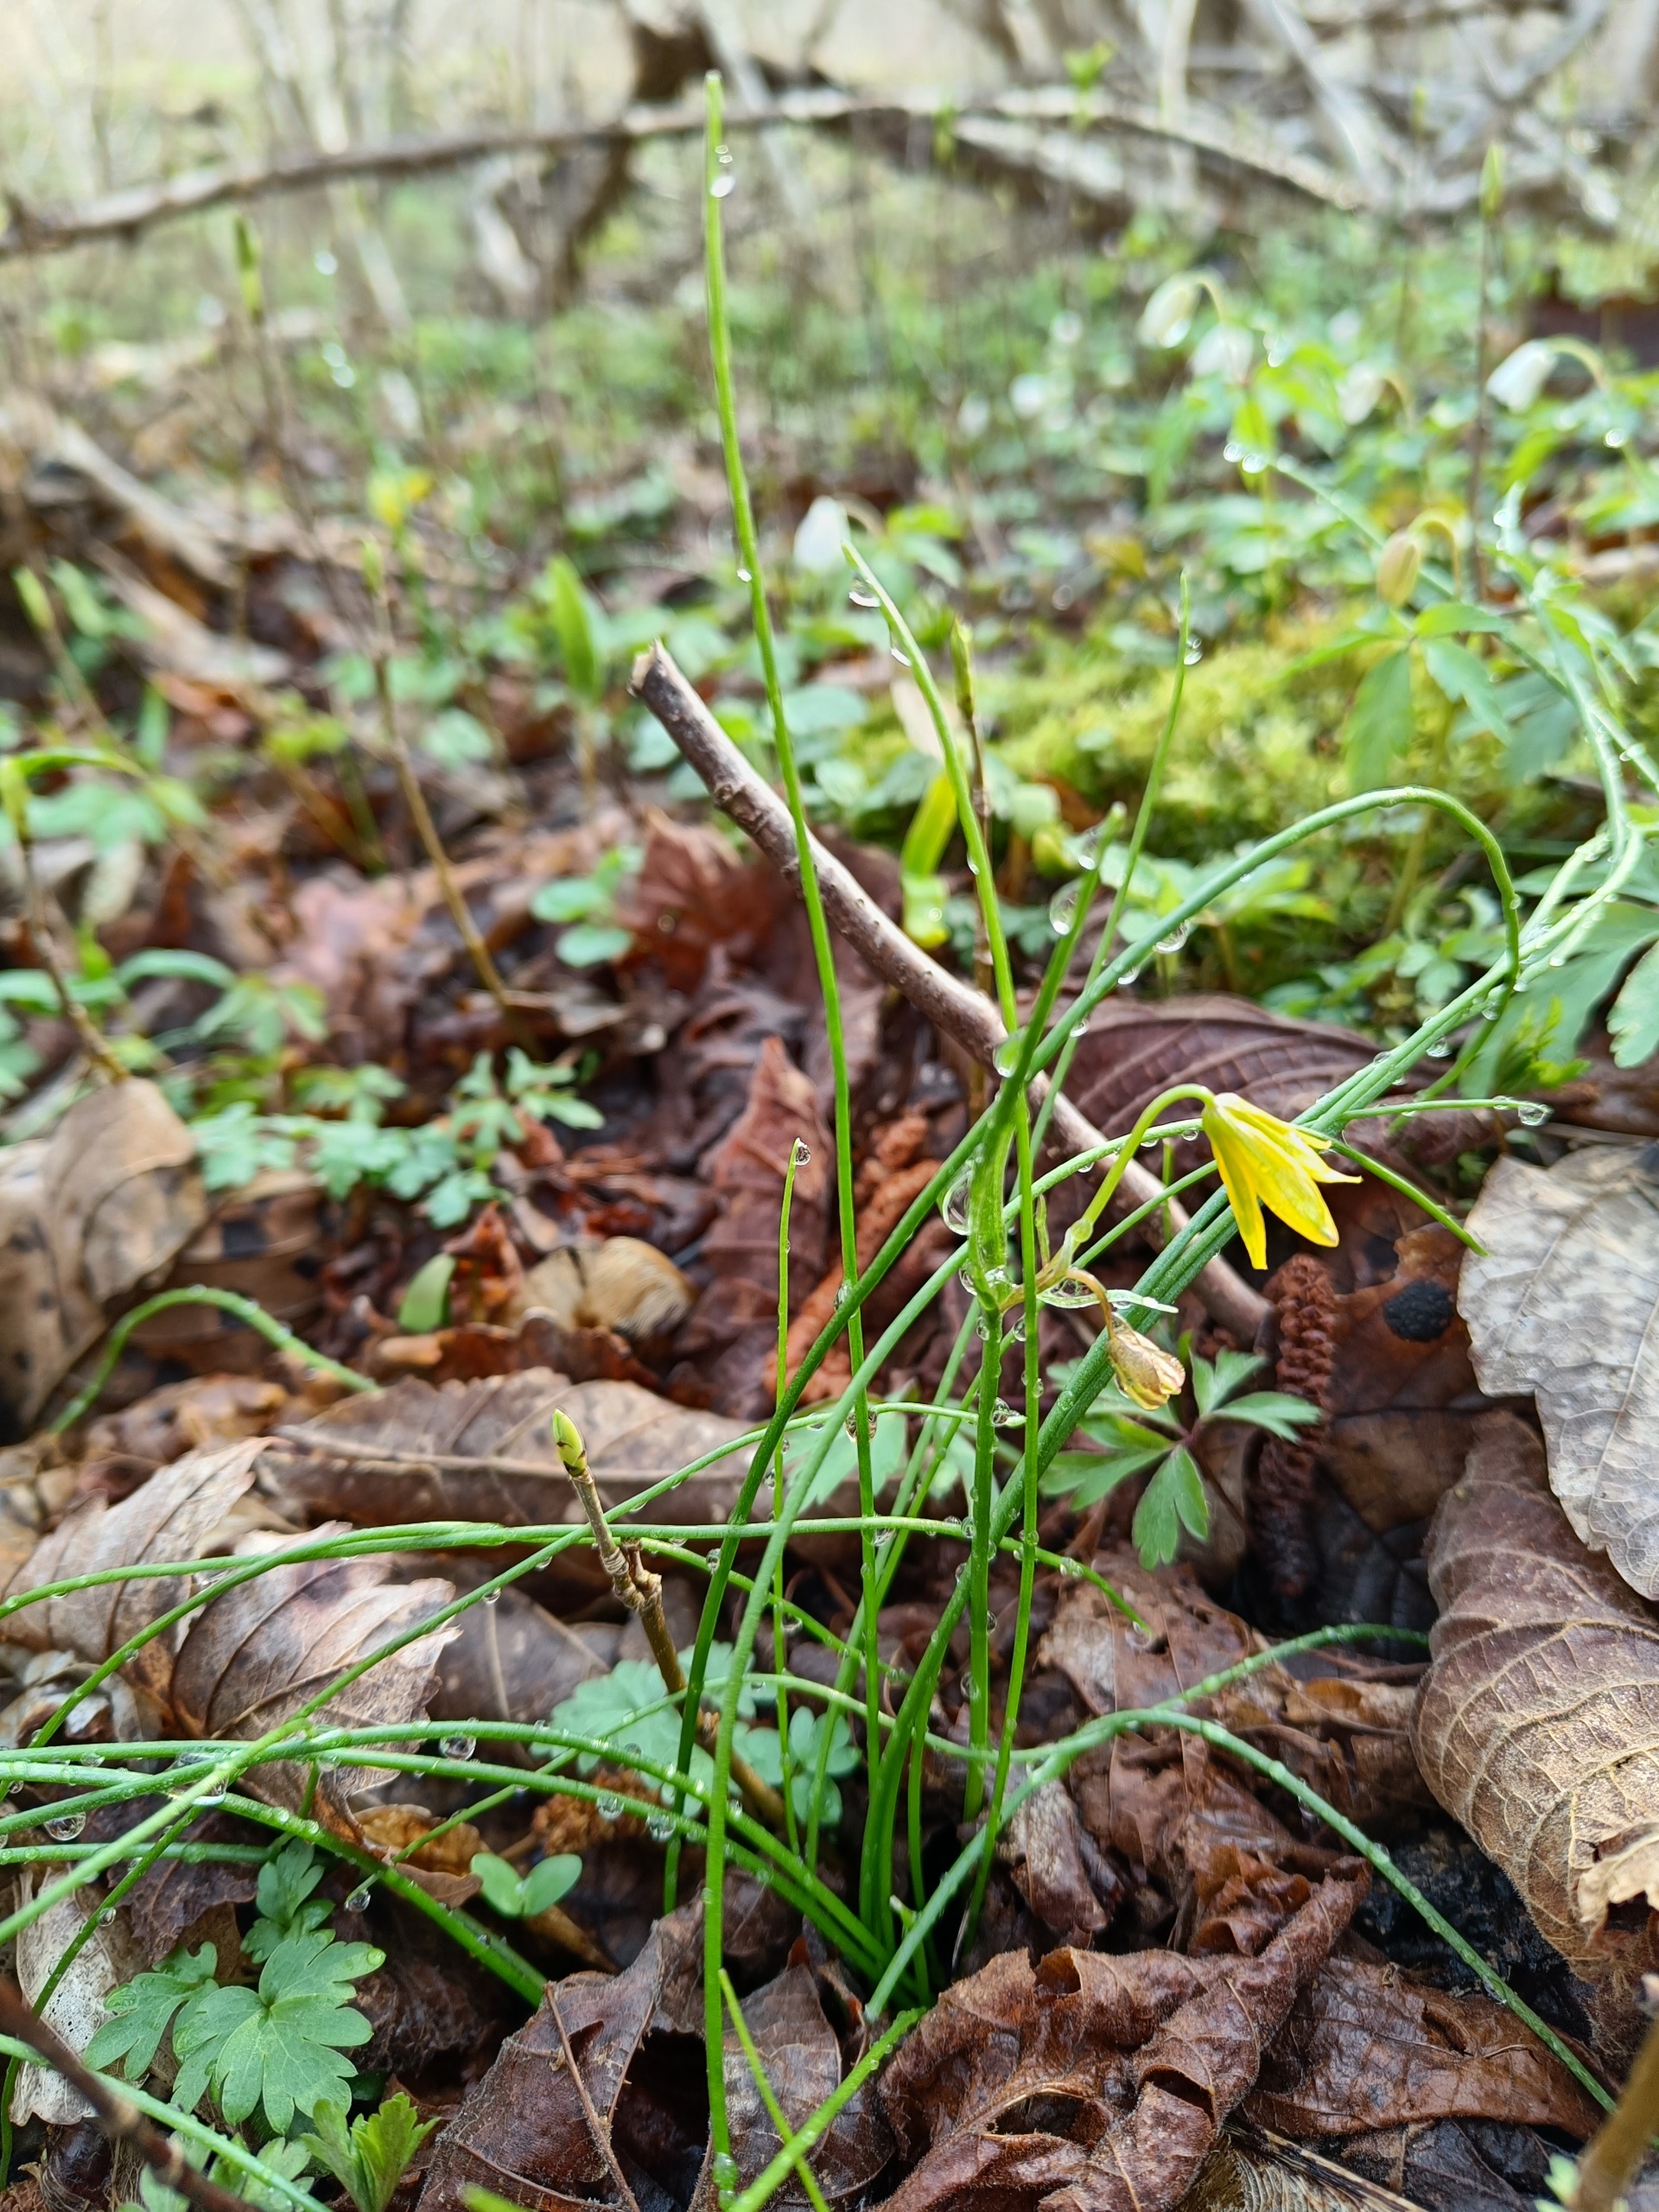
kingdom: Plantae
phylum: Tracheophyta
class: Liliopsida
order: Liliales
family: Liliaceae
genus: Gagea
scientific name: Gagea spathacea
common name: Hylster-guldstjerne
